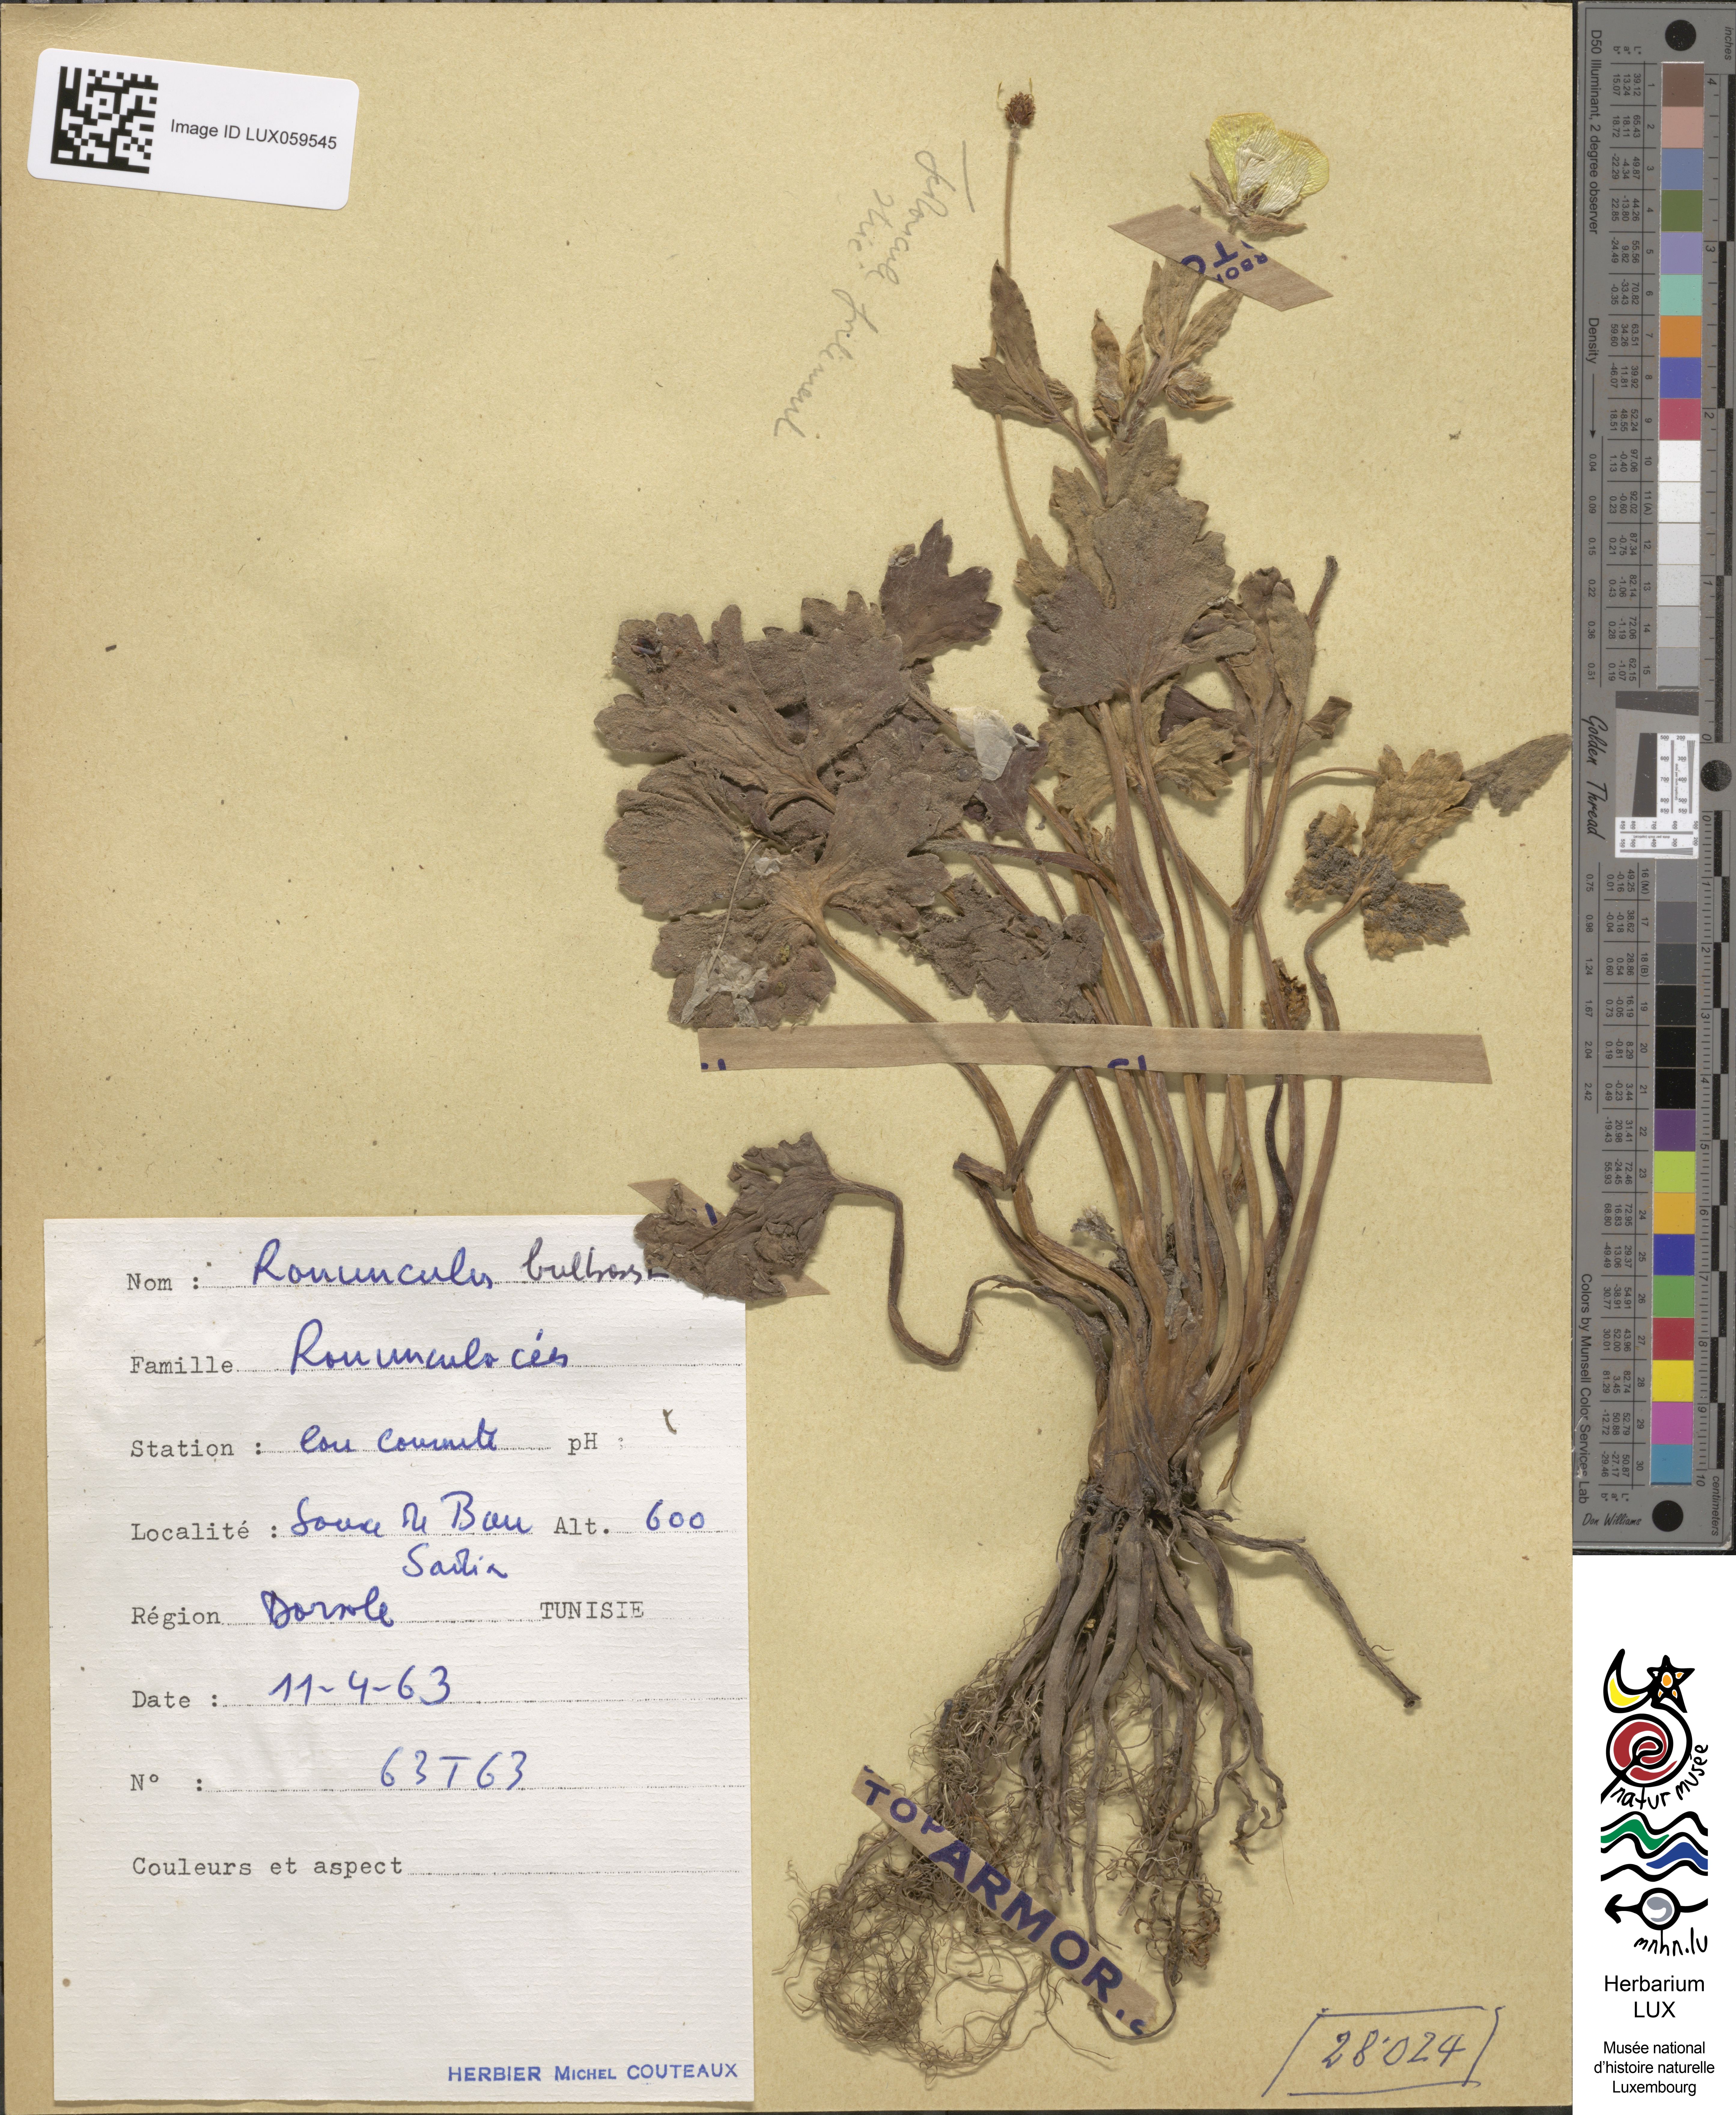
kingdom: Plantae
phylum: Tracheophyta
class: Magnoliopsida
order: Ranunculales
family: Ranunculaceae
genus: Ranunculus
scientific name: Ranunculus bulbosus
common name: Bulbous buttercup
